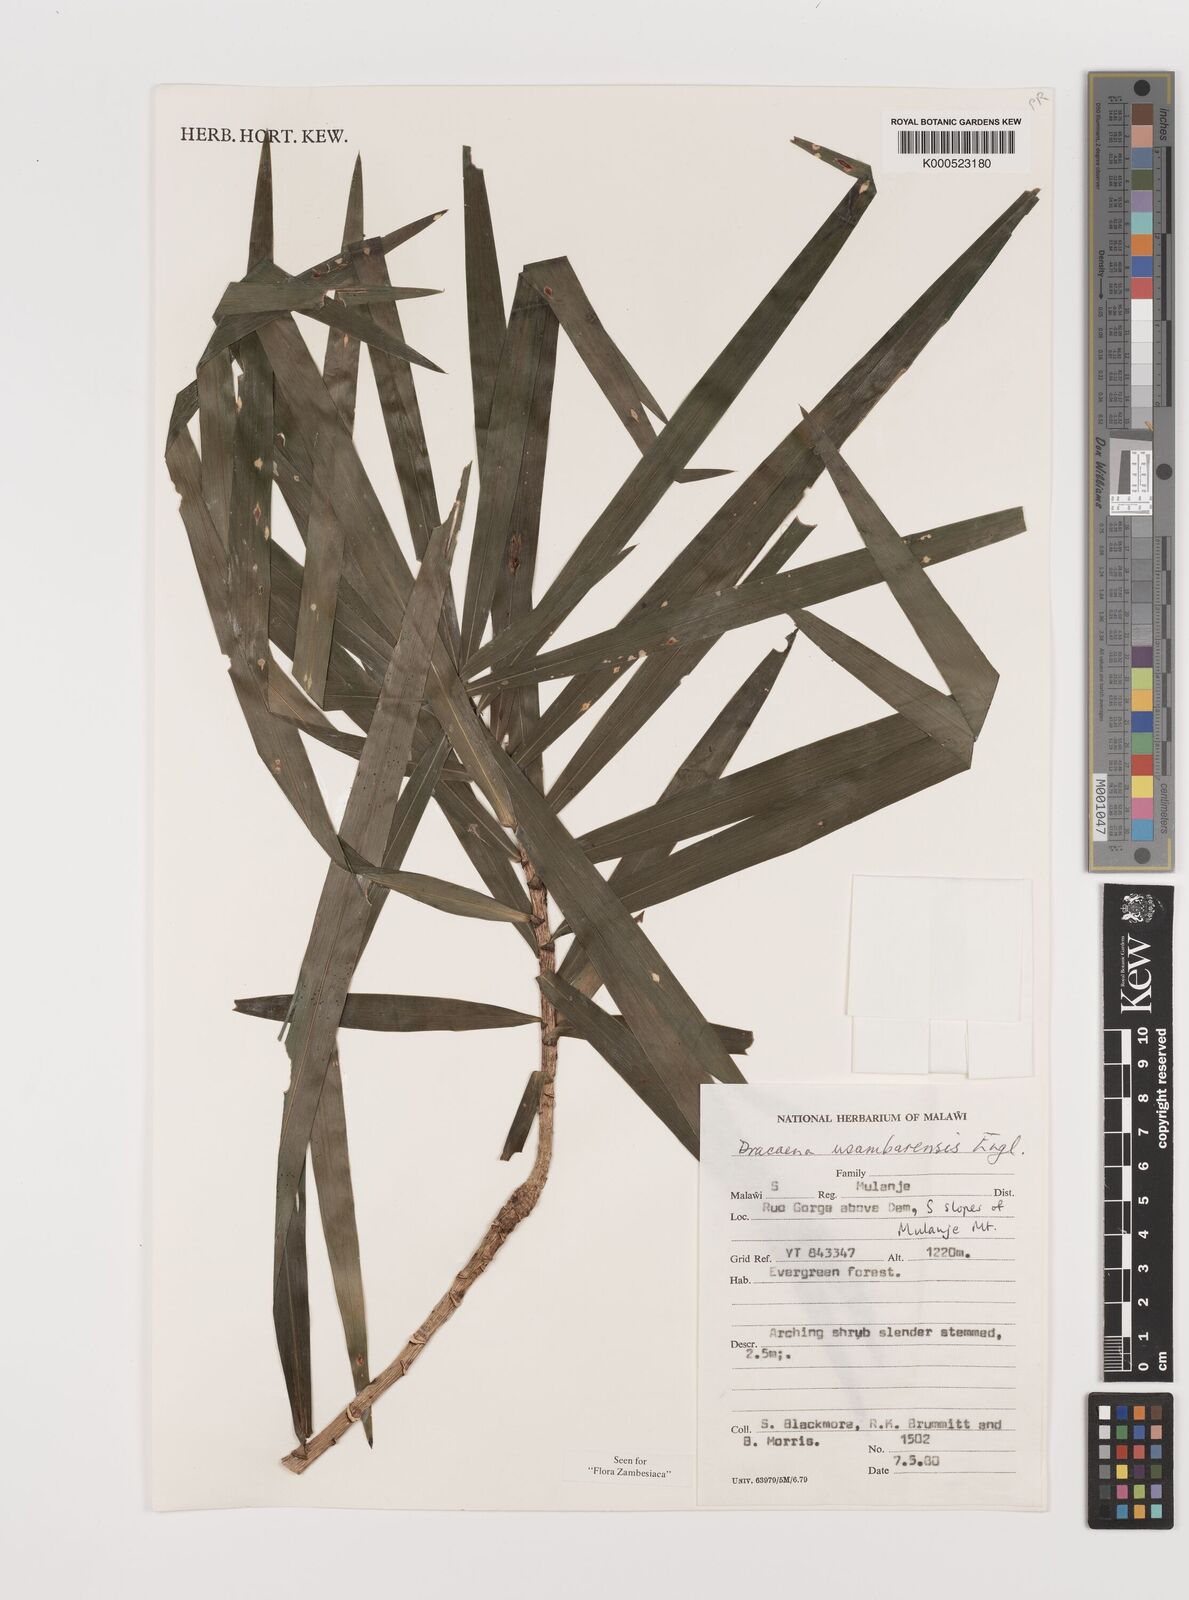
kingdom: Plantae
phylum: Tracheophyta
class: Liliopsida
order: Asparagales
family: Asparagaceae
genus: Dracaena
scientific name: Dracaena usambarensis
